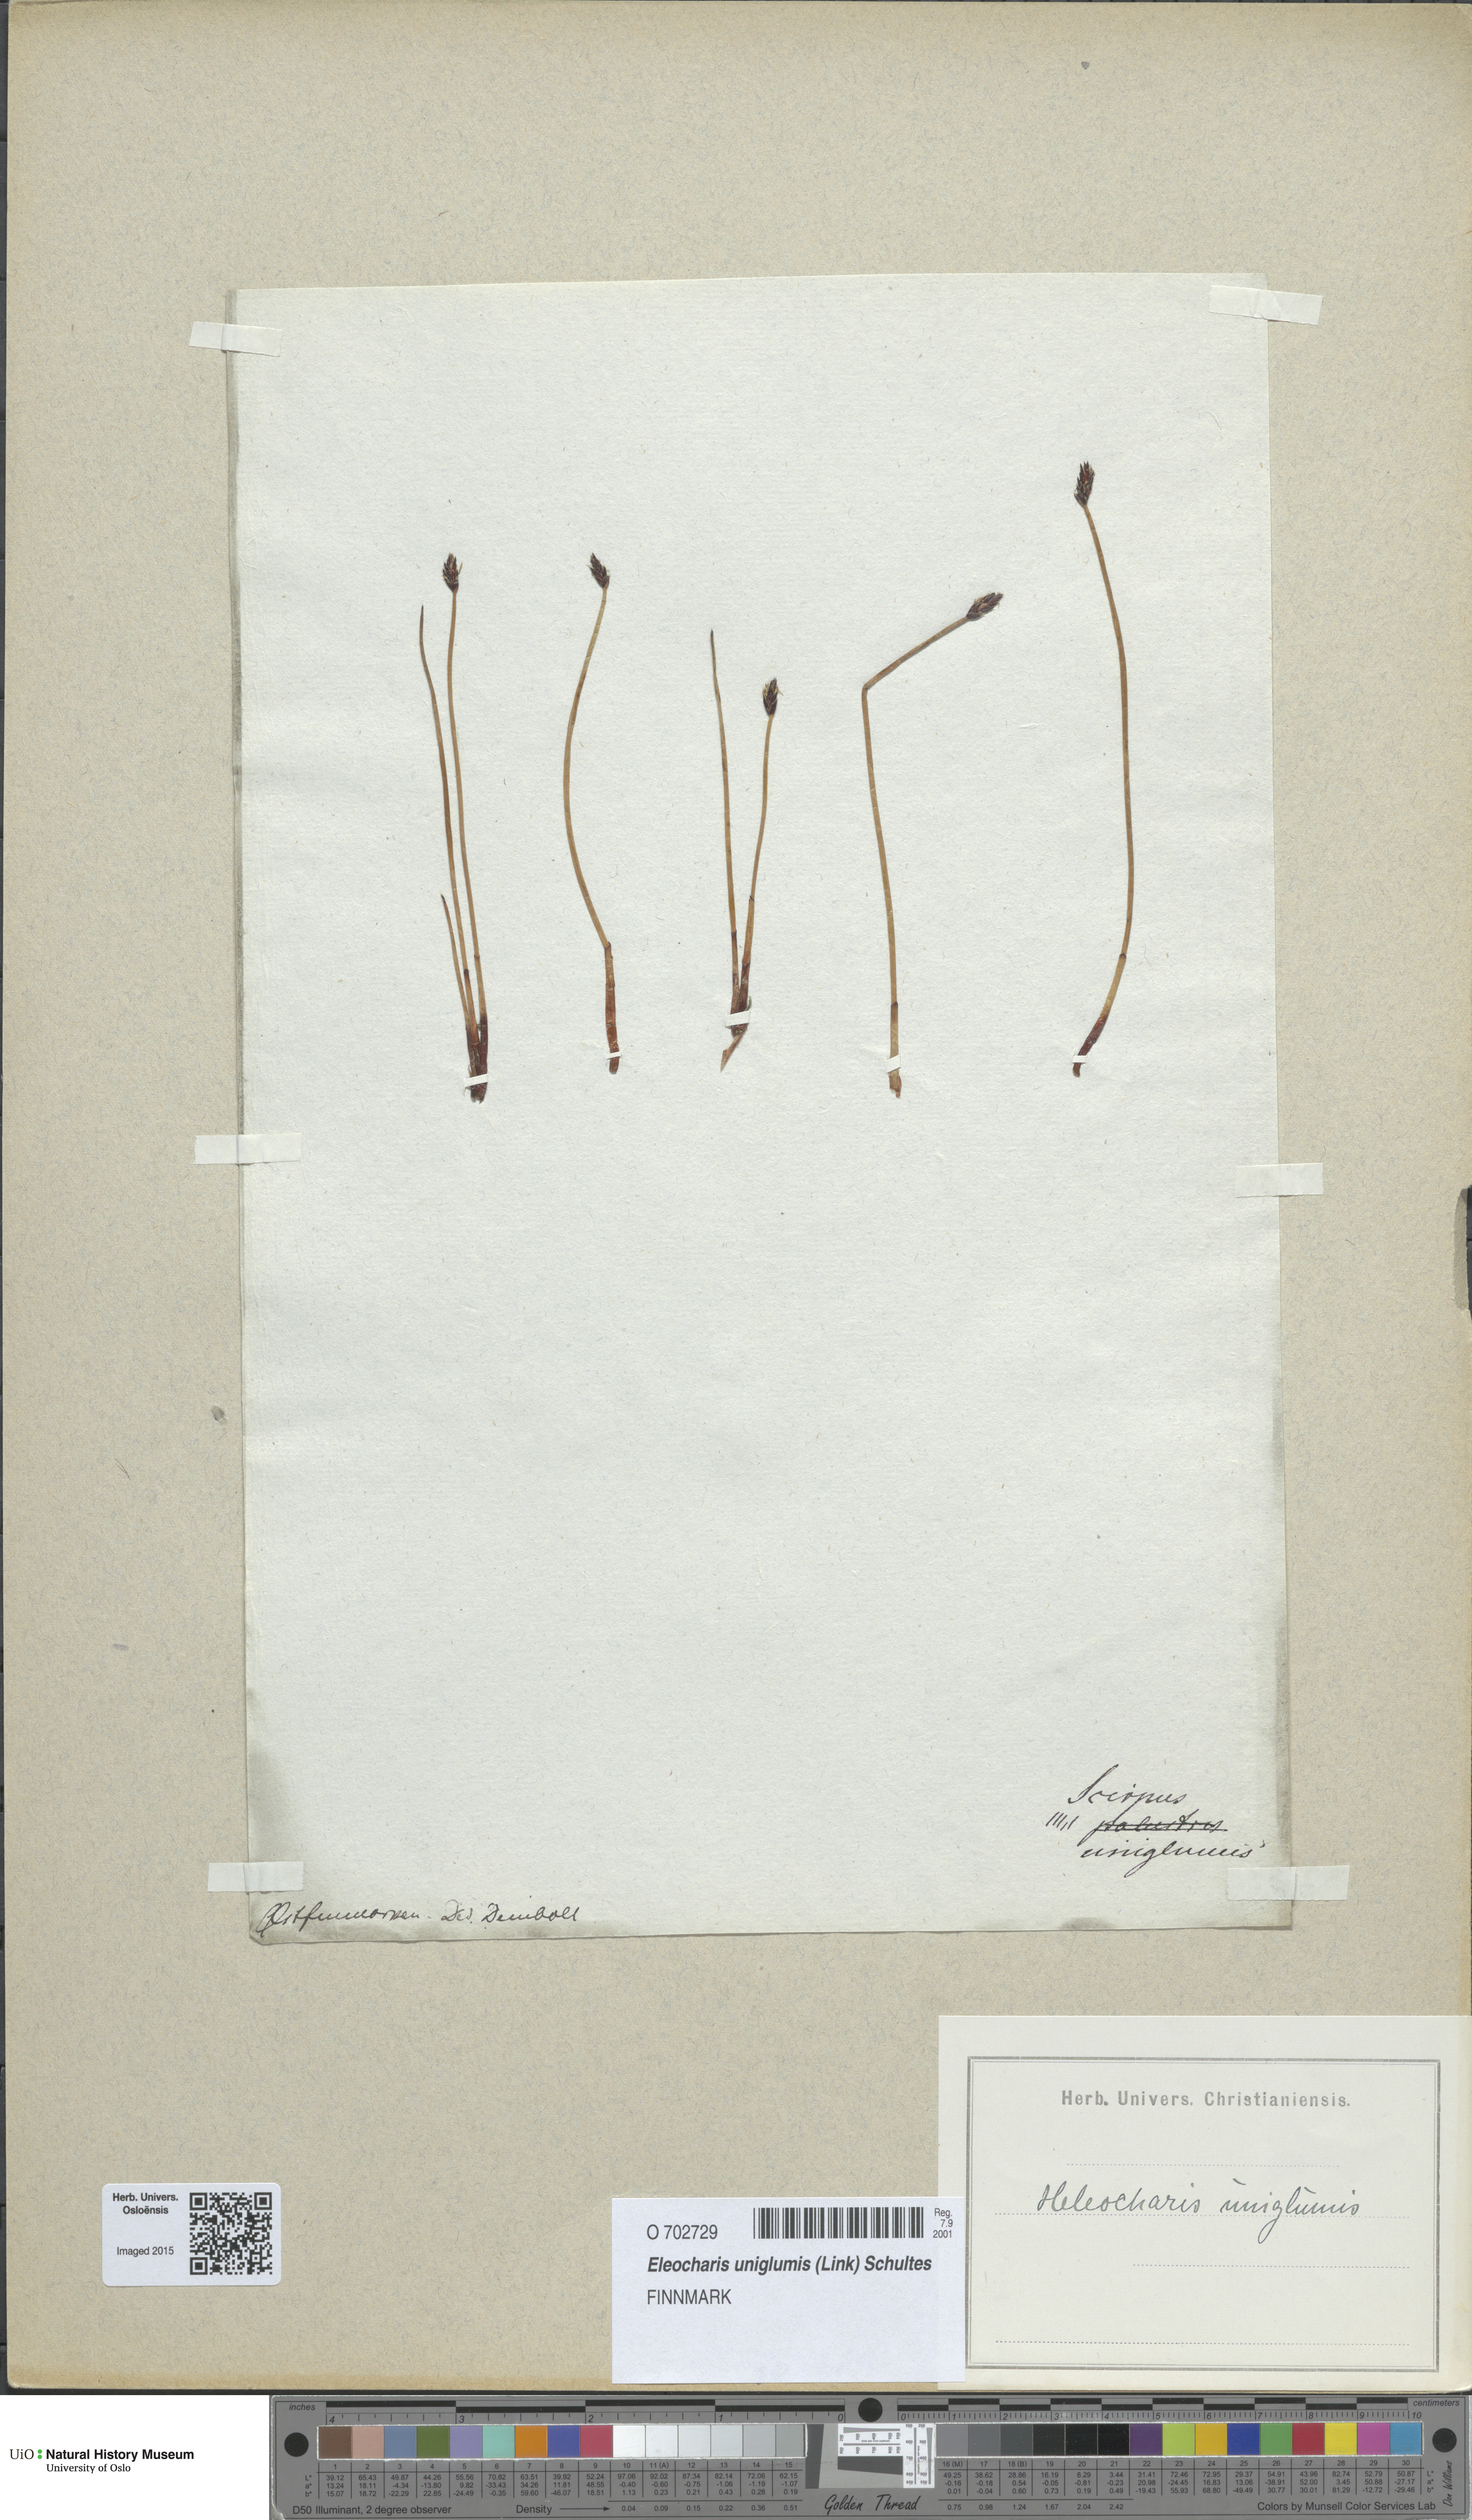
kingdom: Plantae
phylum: Tracheophyta
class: Liliopsida
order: Poales
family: Cyperaceae
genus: Eleocharis
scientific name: Eleocharis uniglumis
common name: Slender spike-rush
